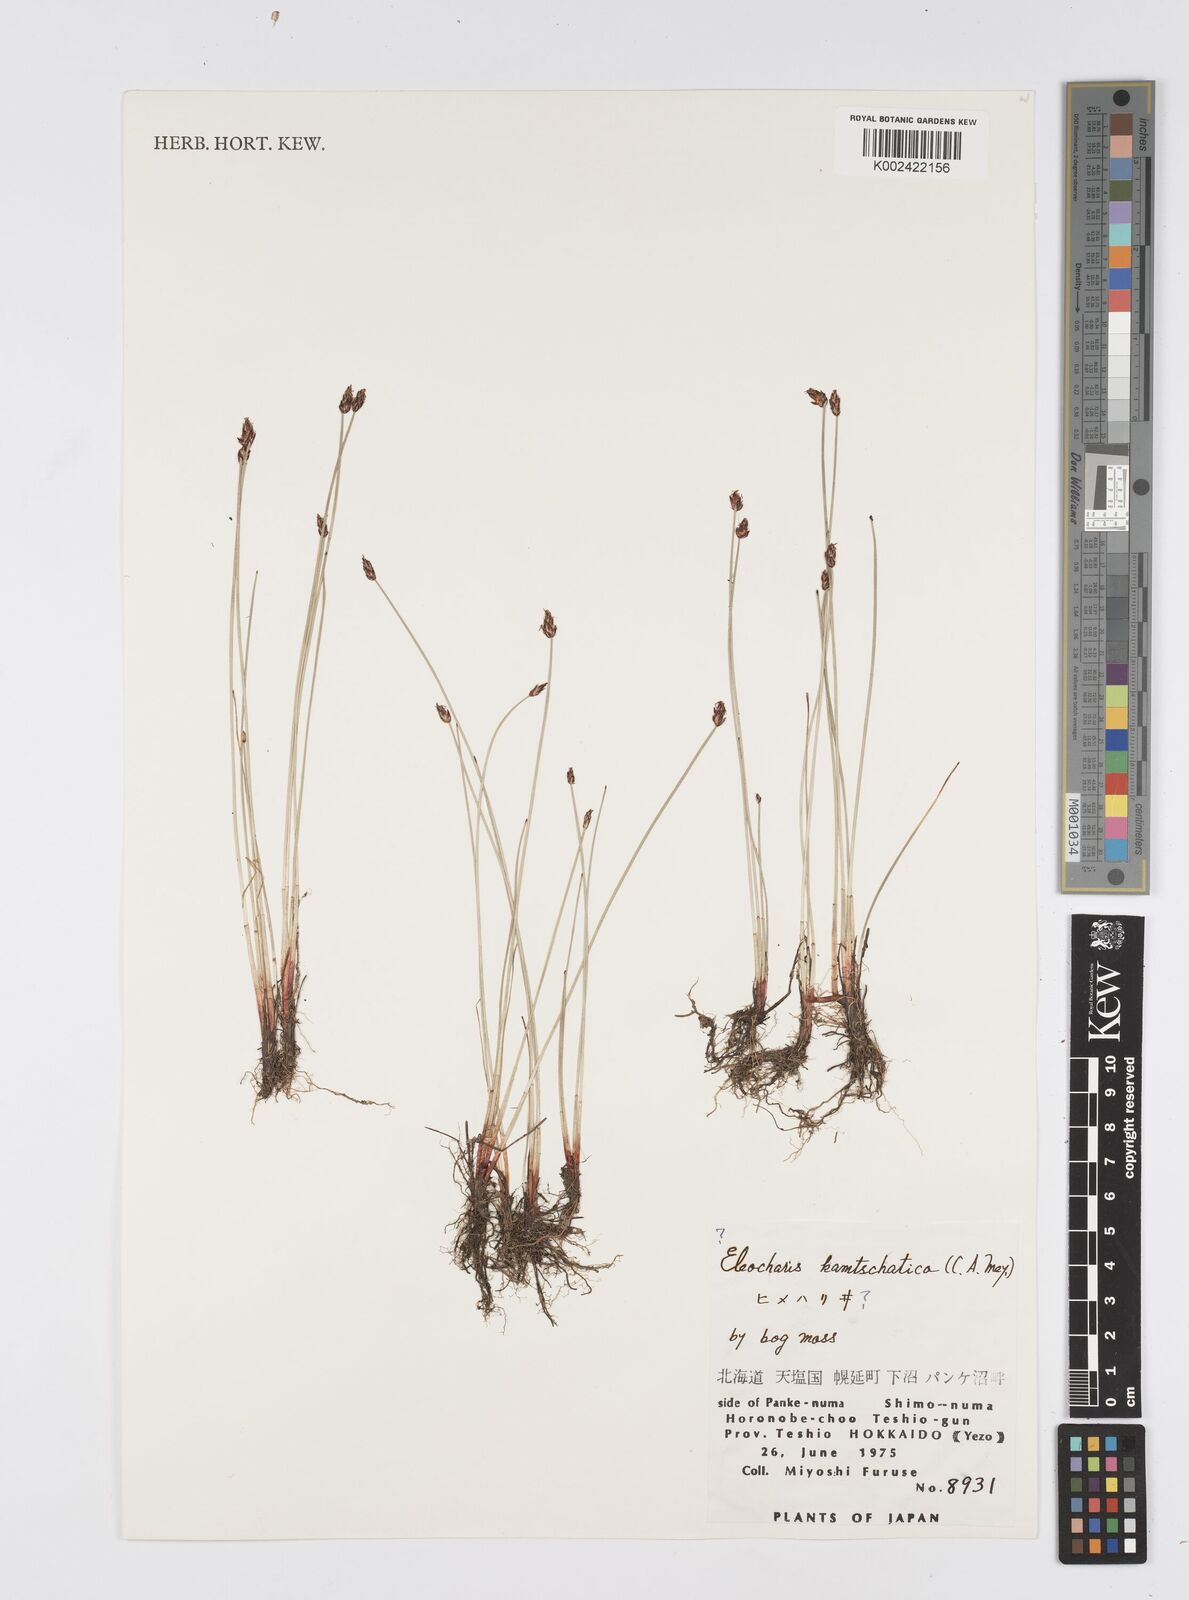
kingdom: Plantae
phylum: Tracheophyta
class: Liliopsida
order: Poales
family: Cyperaceae
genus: Eleocharis
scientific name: Eleocharis kamtschatica
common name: Kamchatka spikerush
